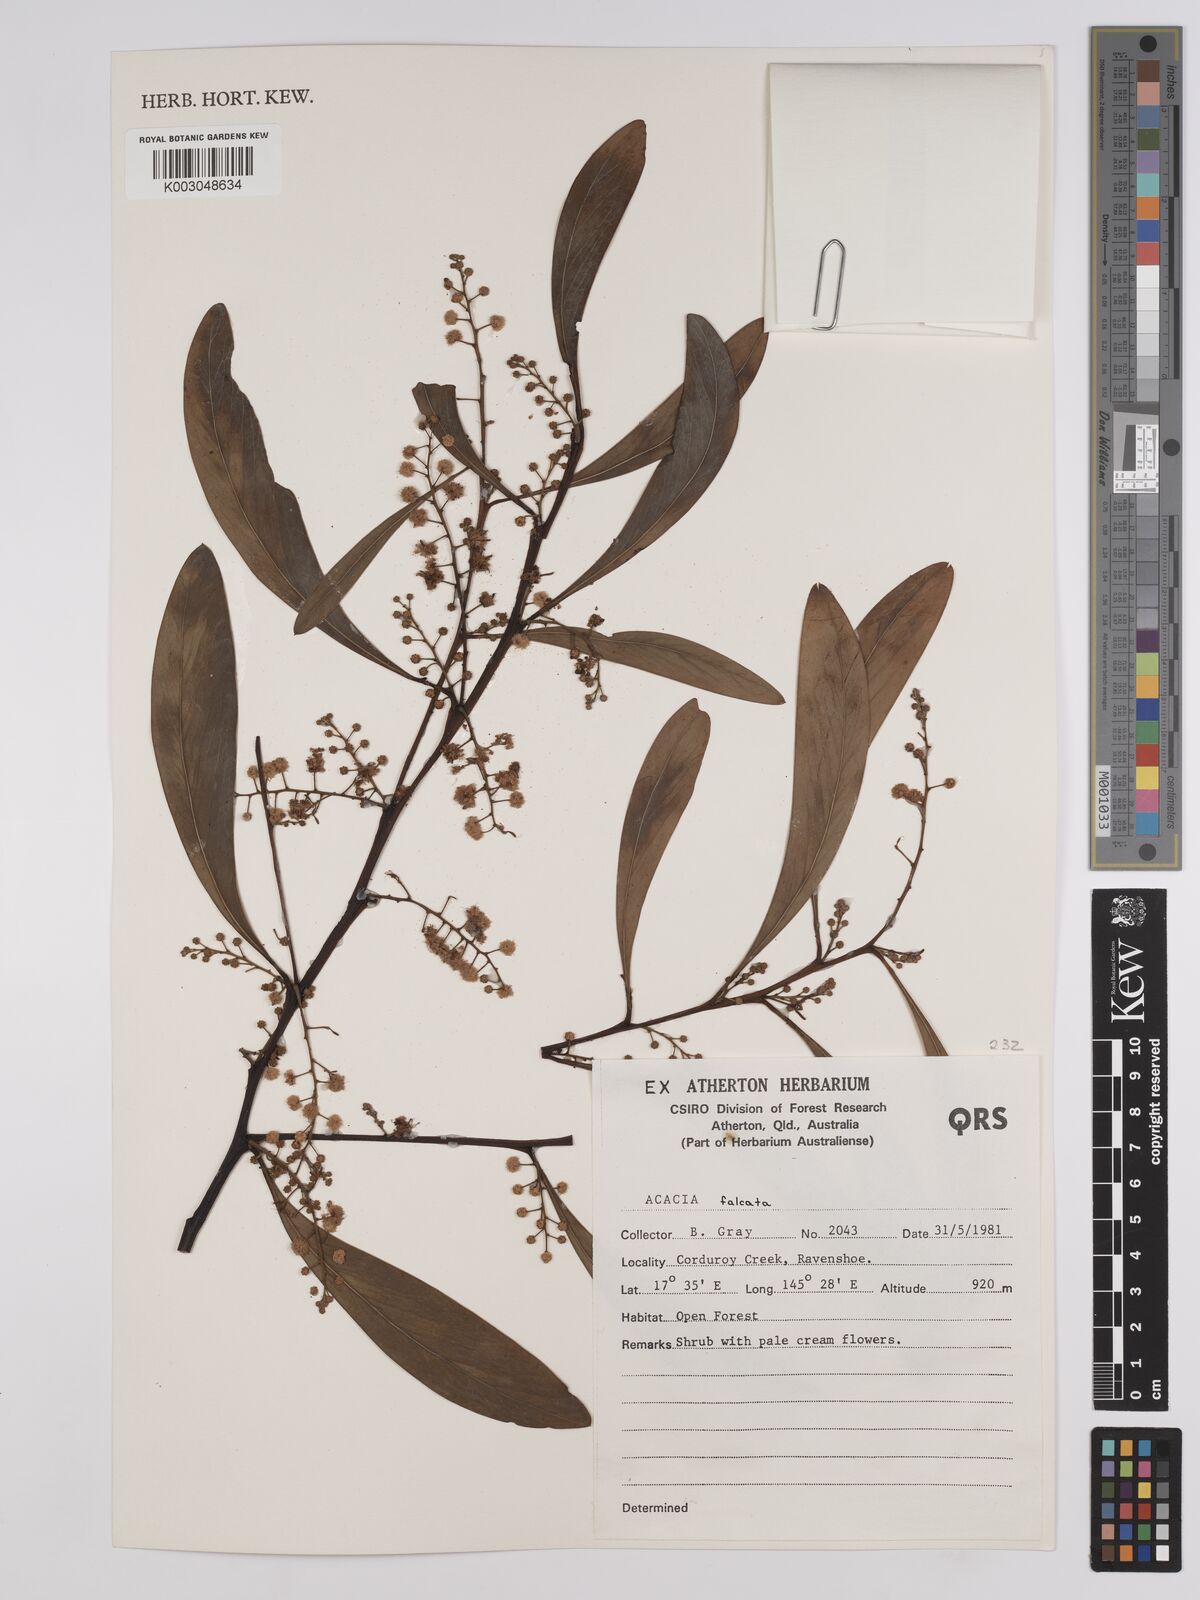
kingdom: Plantae
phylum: Tracheophyta
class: Magnoliopsida
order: Fabales
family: Fabaceae
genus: Acacia
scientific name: Acacia falcata
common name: Burra acacia
